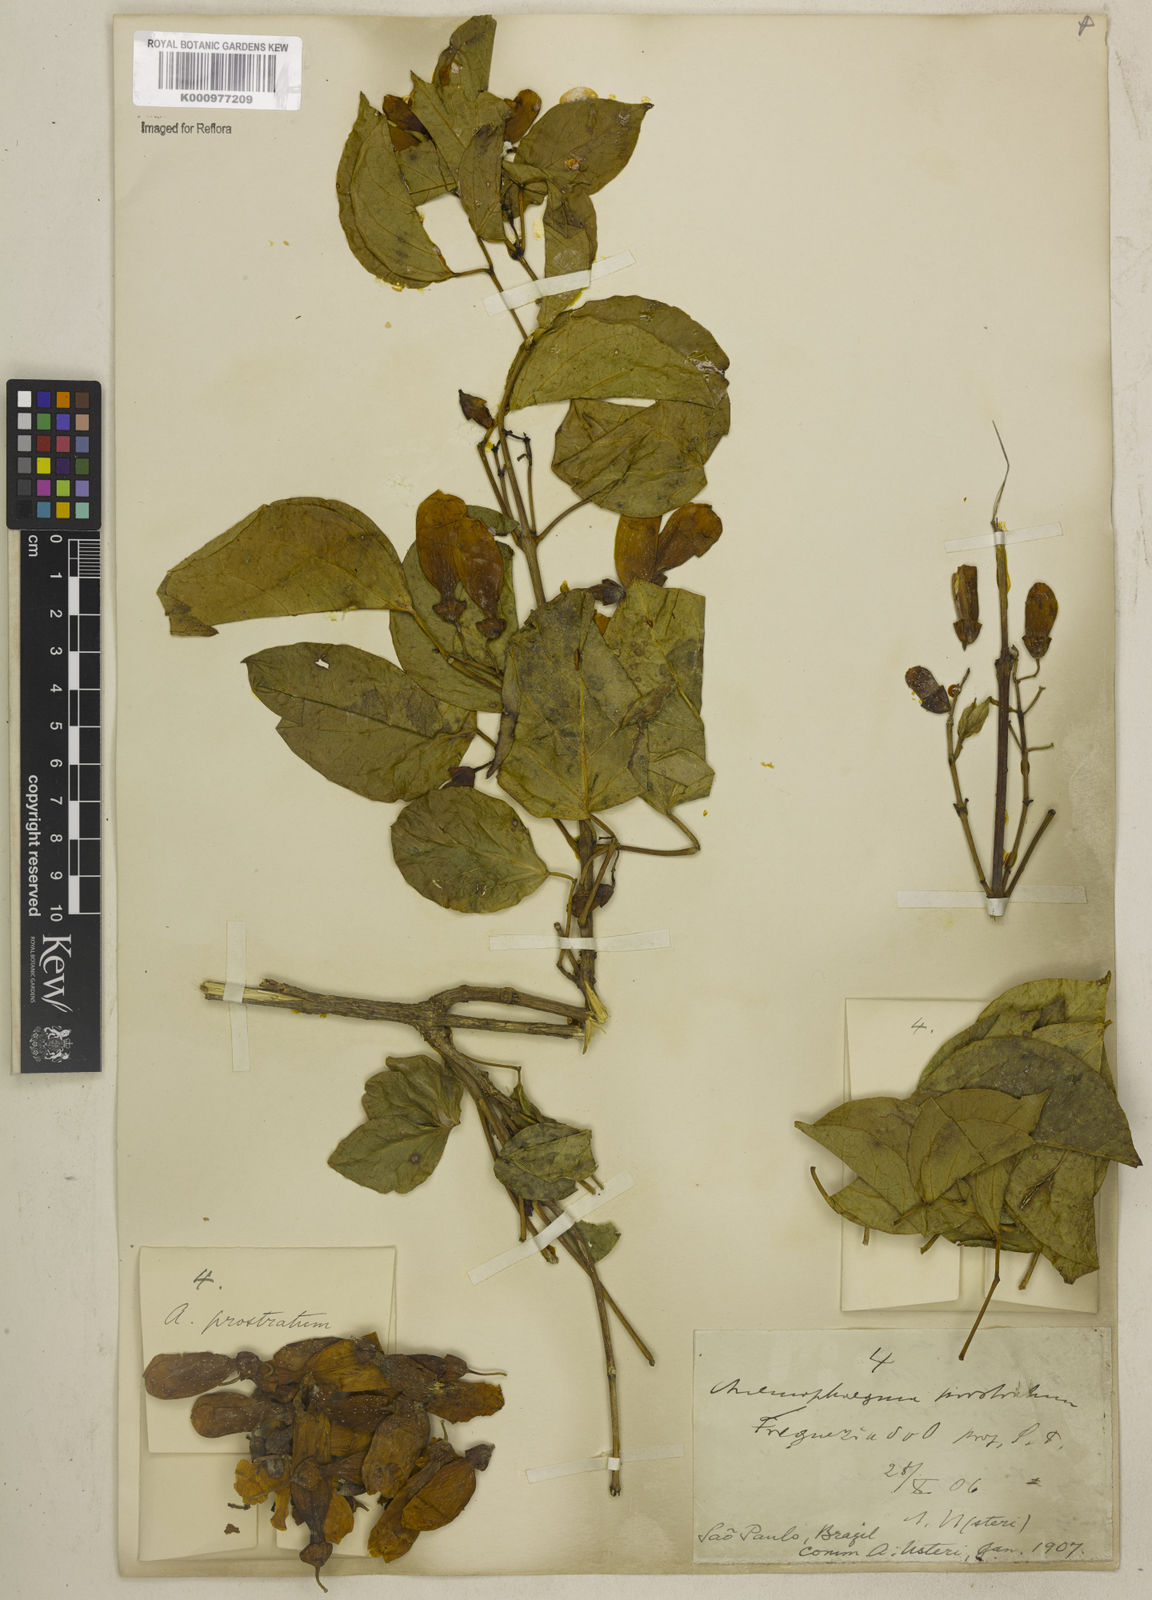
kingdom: Plantae
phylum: Tracheophyta
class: Magnoliopsida
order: Lamiales
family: Bignoniaceae
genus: Anemopaegma
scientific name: Anemopaegma prostratum
